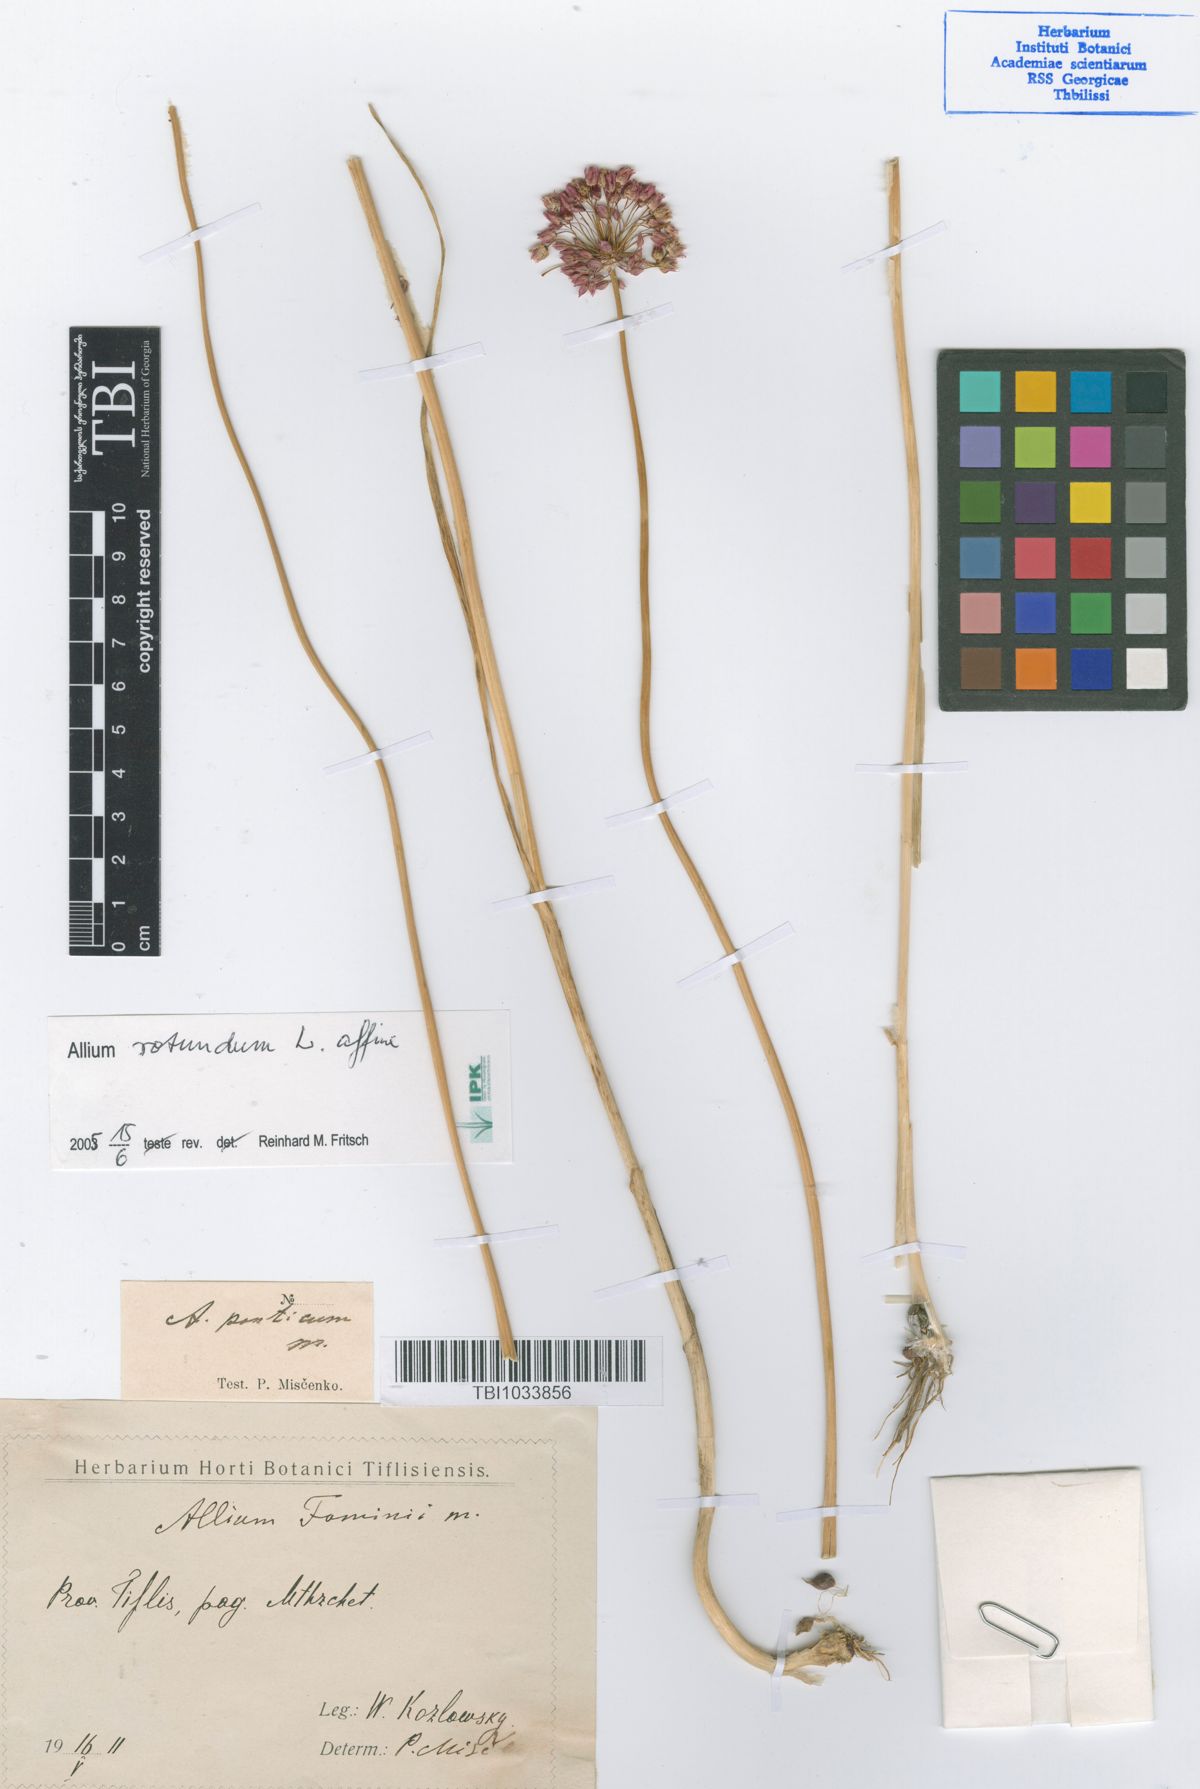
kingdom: Plantae
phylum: Tracheophyta
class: Liliopsida
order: Asparagales
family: Amaryllidaceae
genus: Allium
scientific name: Allium rotundum
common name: Sand leek
